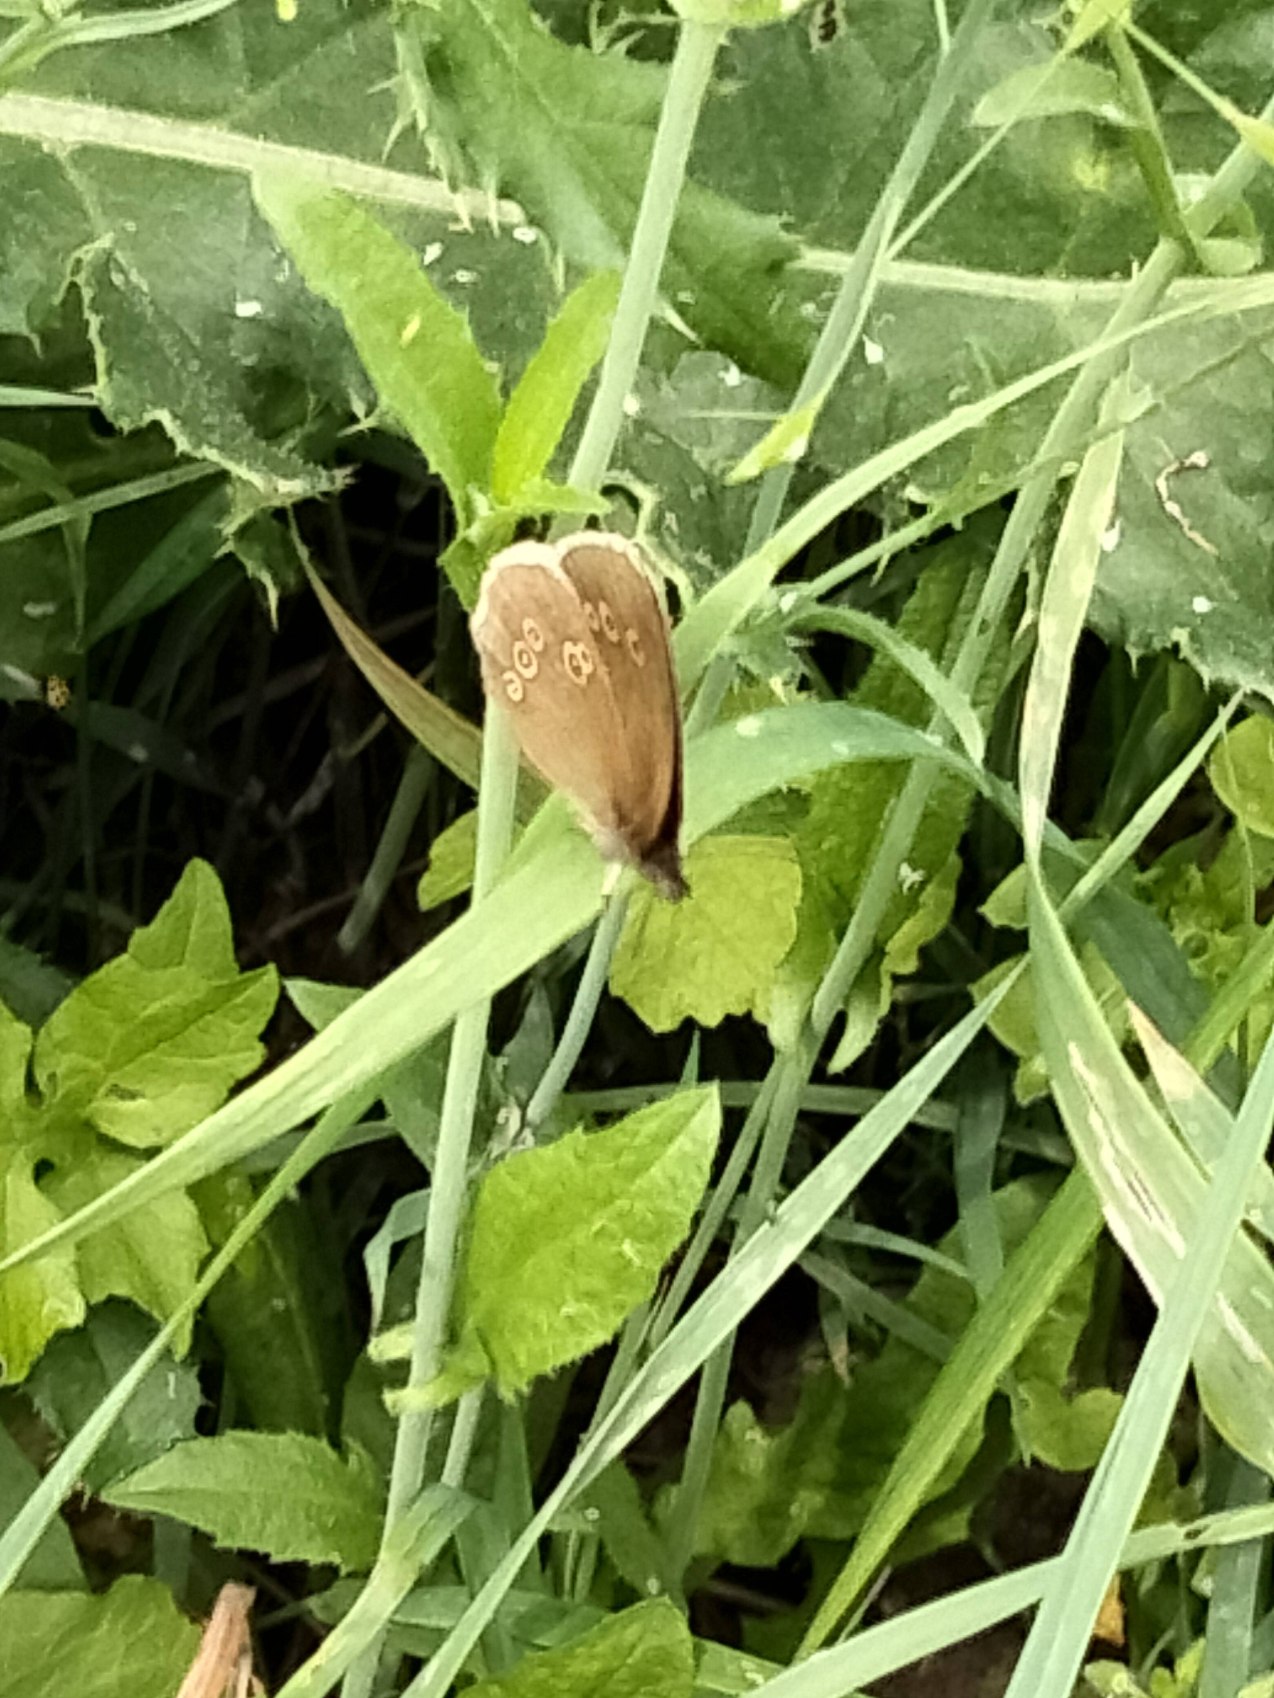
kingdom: Animalia
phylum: Arthropoda
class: Insecta
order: Lepidoptera
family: Nymphalidae
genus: Aphantopus
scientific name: Aphantopus hyperantus
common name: Engrandøje
